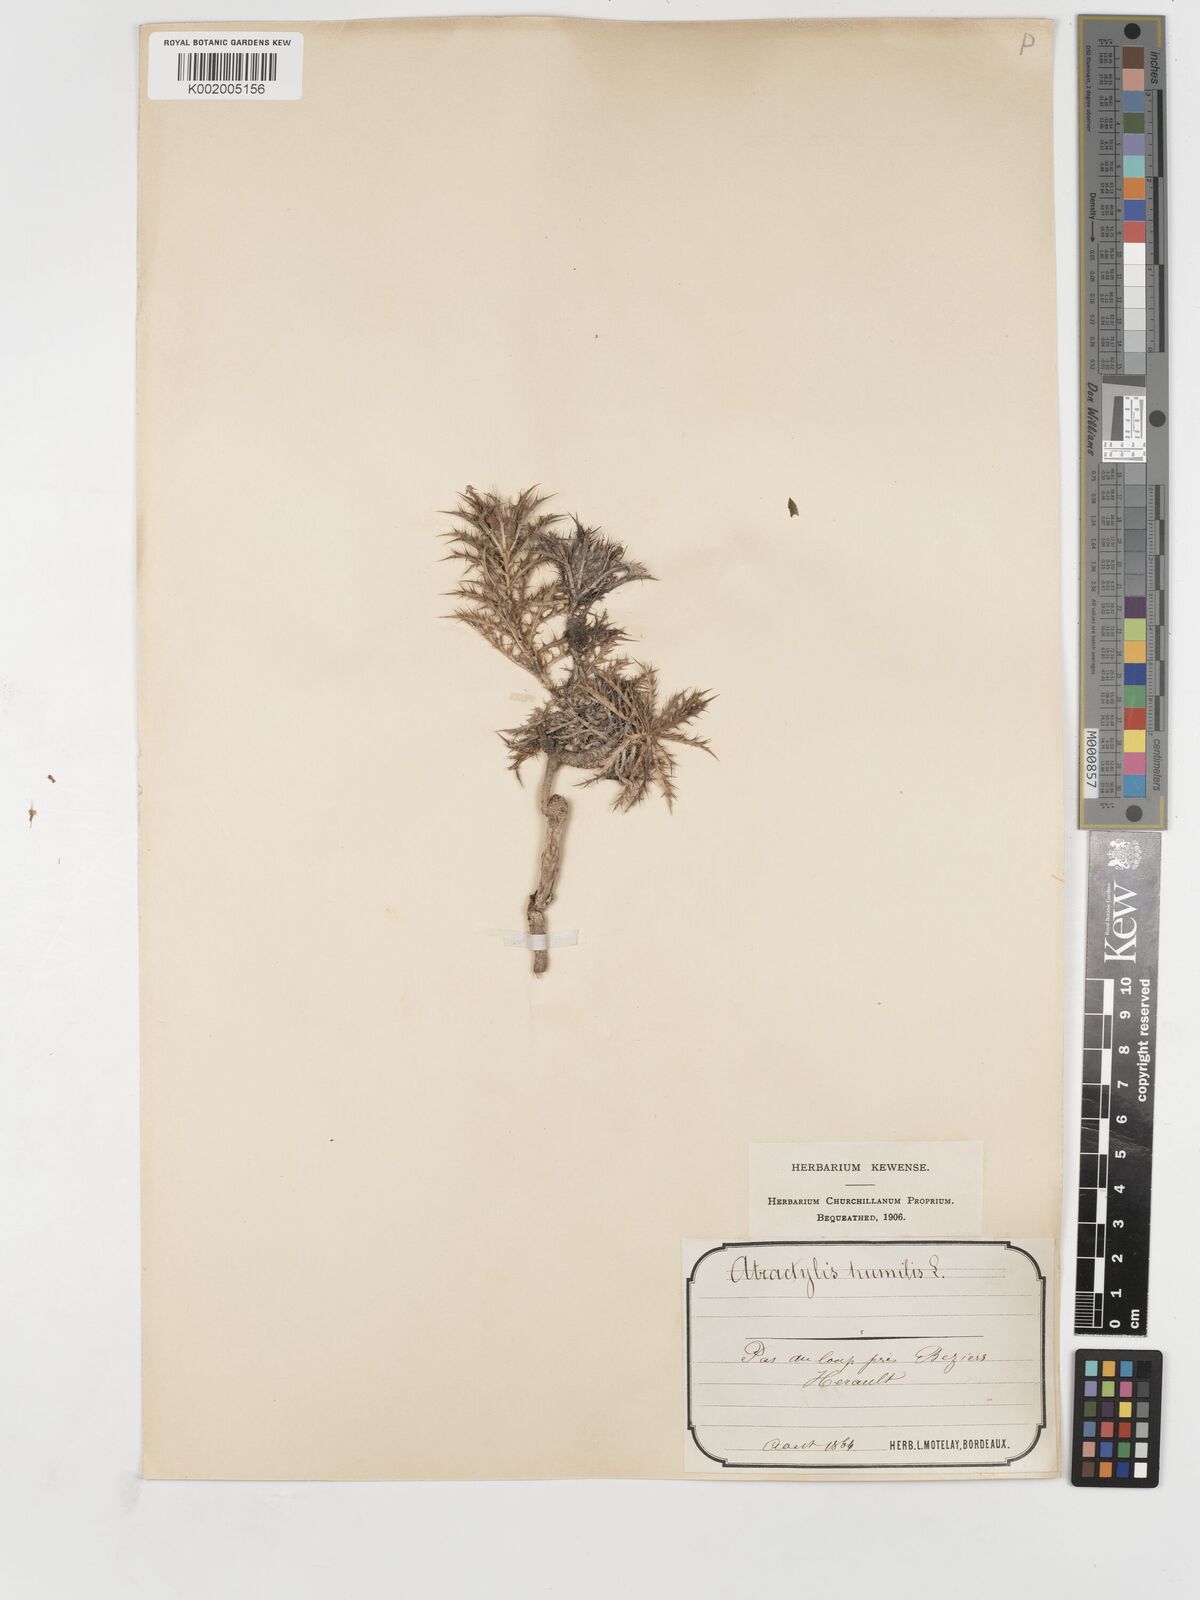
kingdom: Plantae
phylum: Tracheophyta
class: Magnoliopsida
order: Asterales
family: Asteraceae
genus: Atractylis
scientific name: Atractylis humilis
